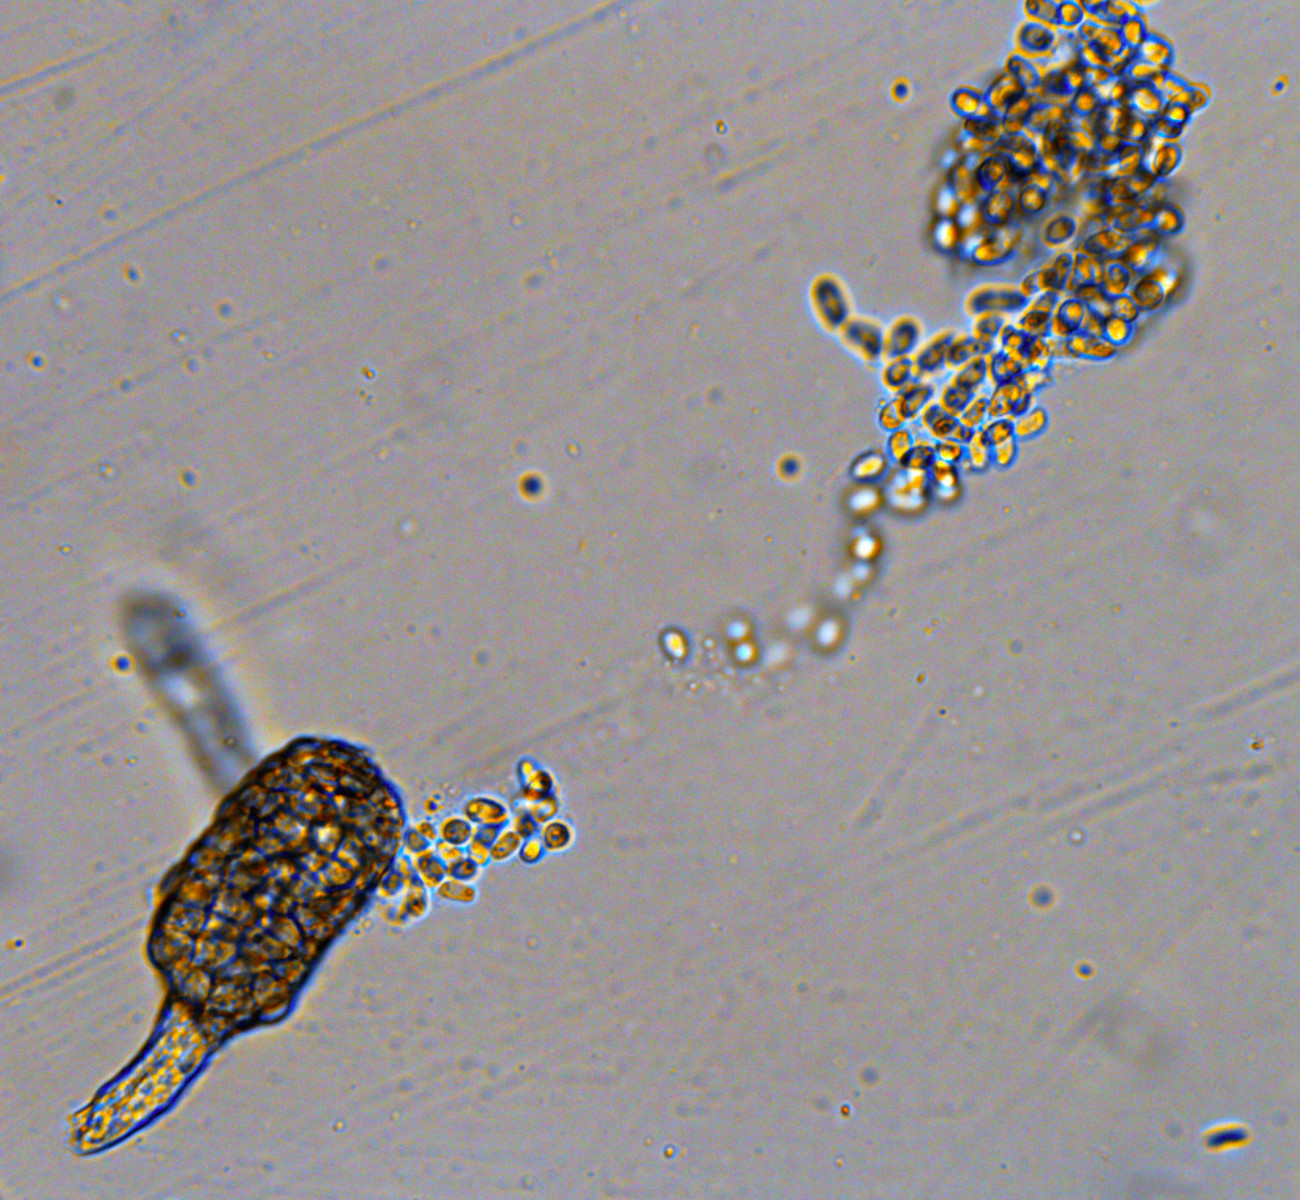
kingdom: Fungi
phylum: Ascomycota
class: Dothideomycetes
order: Pleosporales
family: Phaeosphaeriaceae
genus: Ampelomyces
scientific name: Ampelomyces quisqualis
